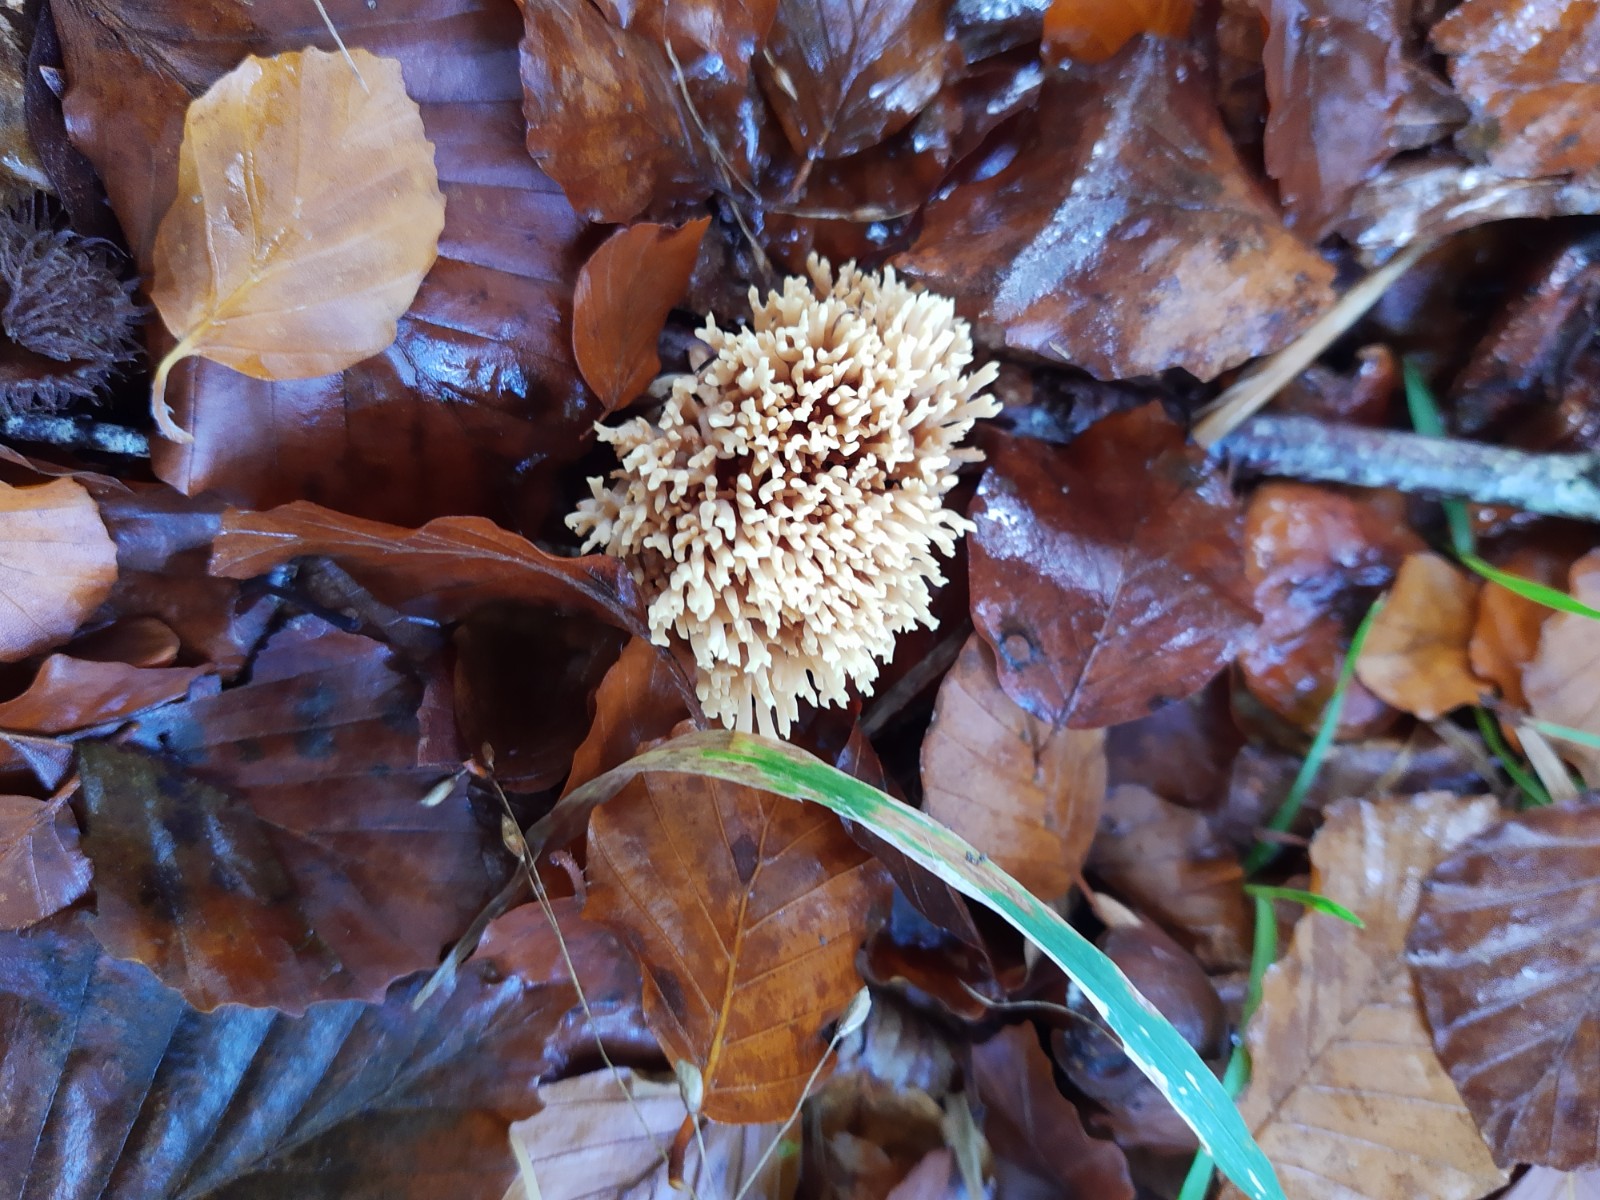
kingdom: Fungi
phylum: Basidiomycota
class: Agaricomycetes
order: Gomphales
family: Gomphaceae
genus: Ramaria
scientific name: Ramaria stricta
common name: rank koralsvamp
